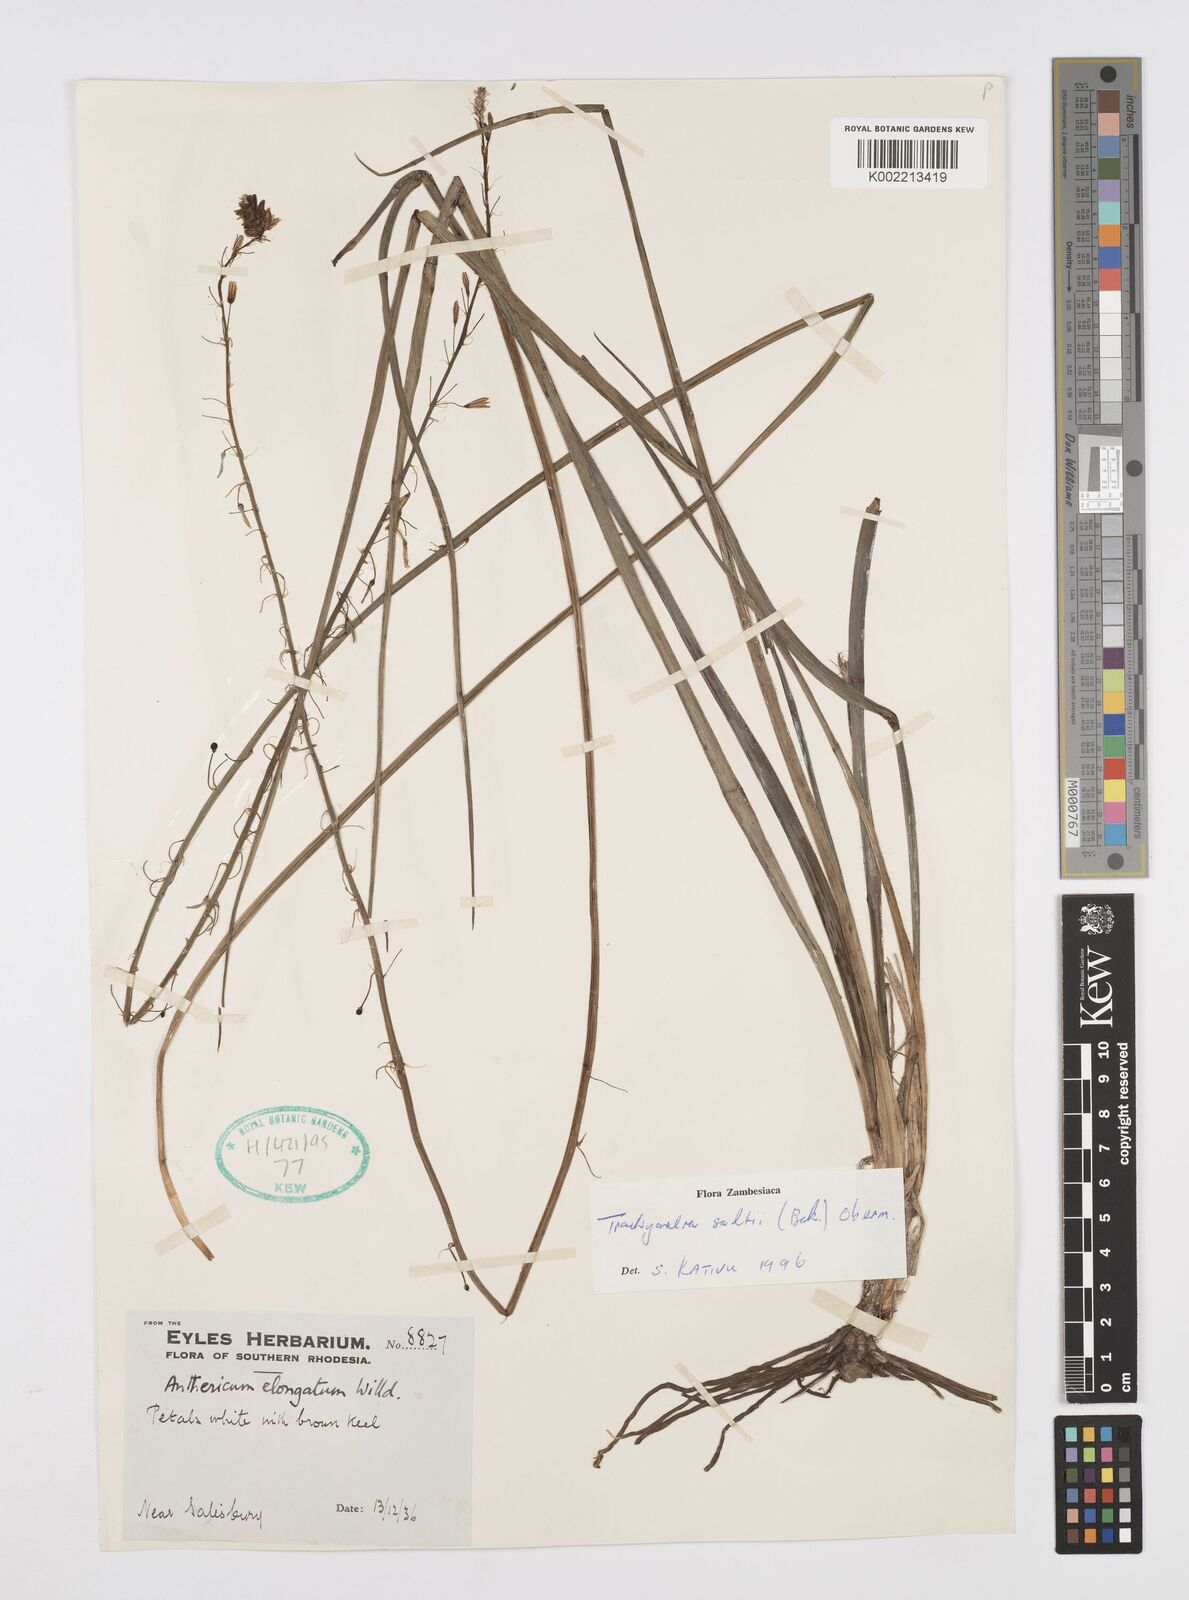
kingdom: Plantae
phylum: Tracheophyta
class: Liliopsida
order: Asparagales
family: Asphodelaceae
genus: Trachyandra
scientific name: Trachyandra saltii
